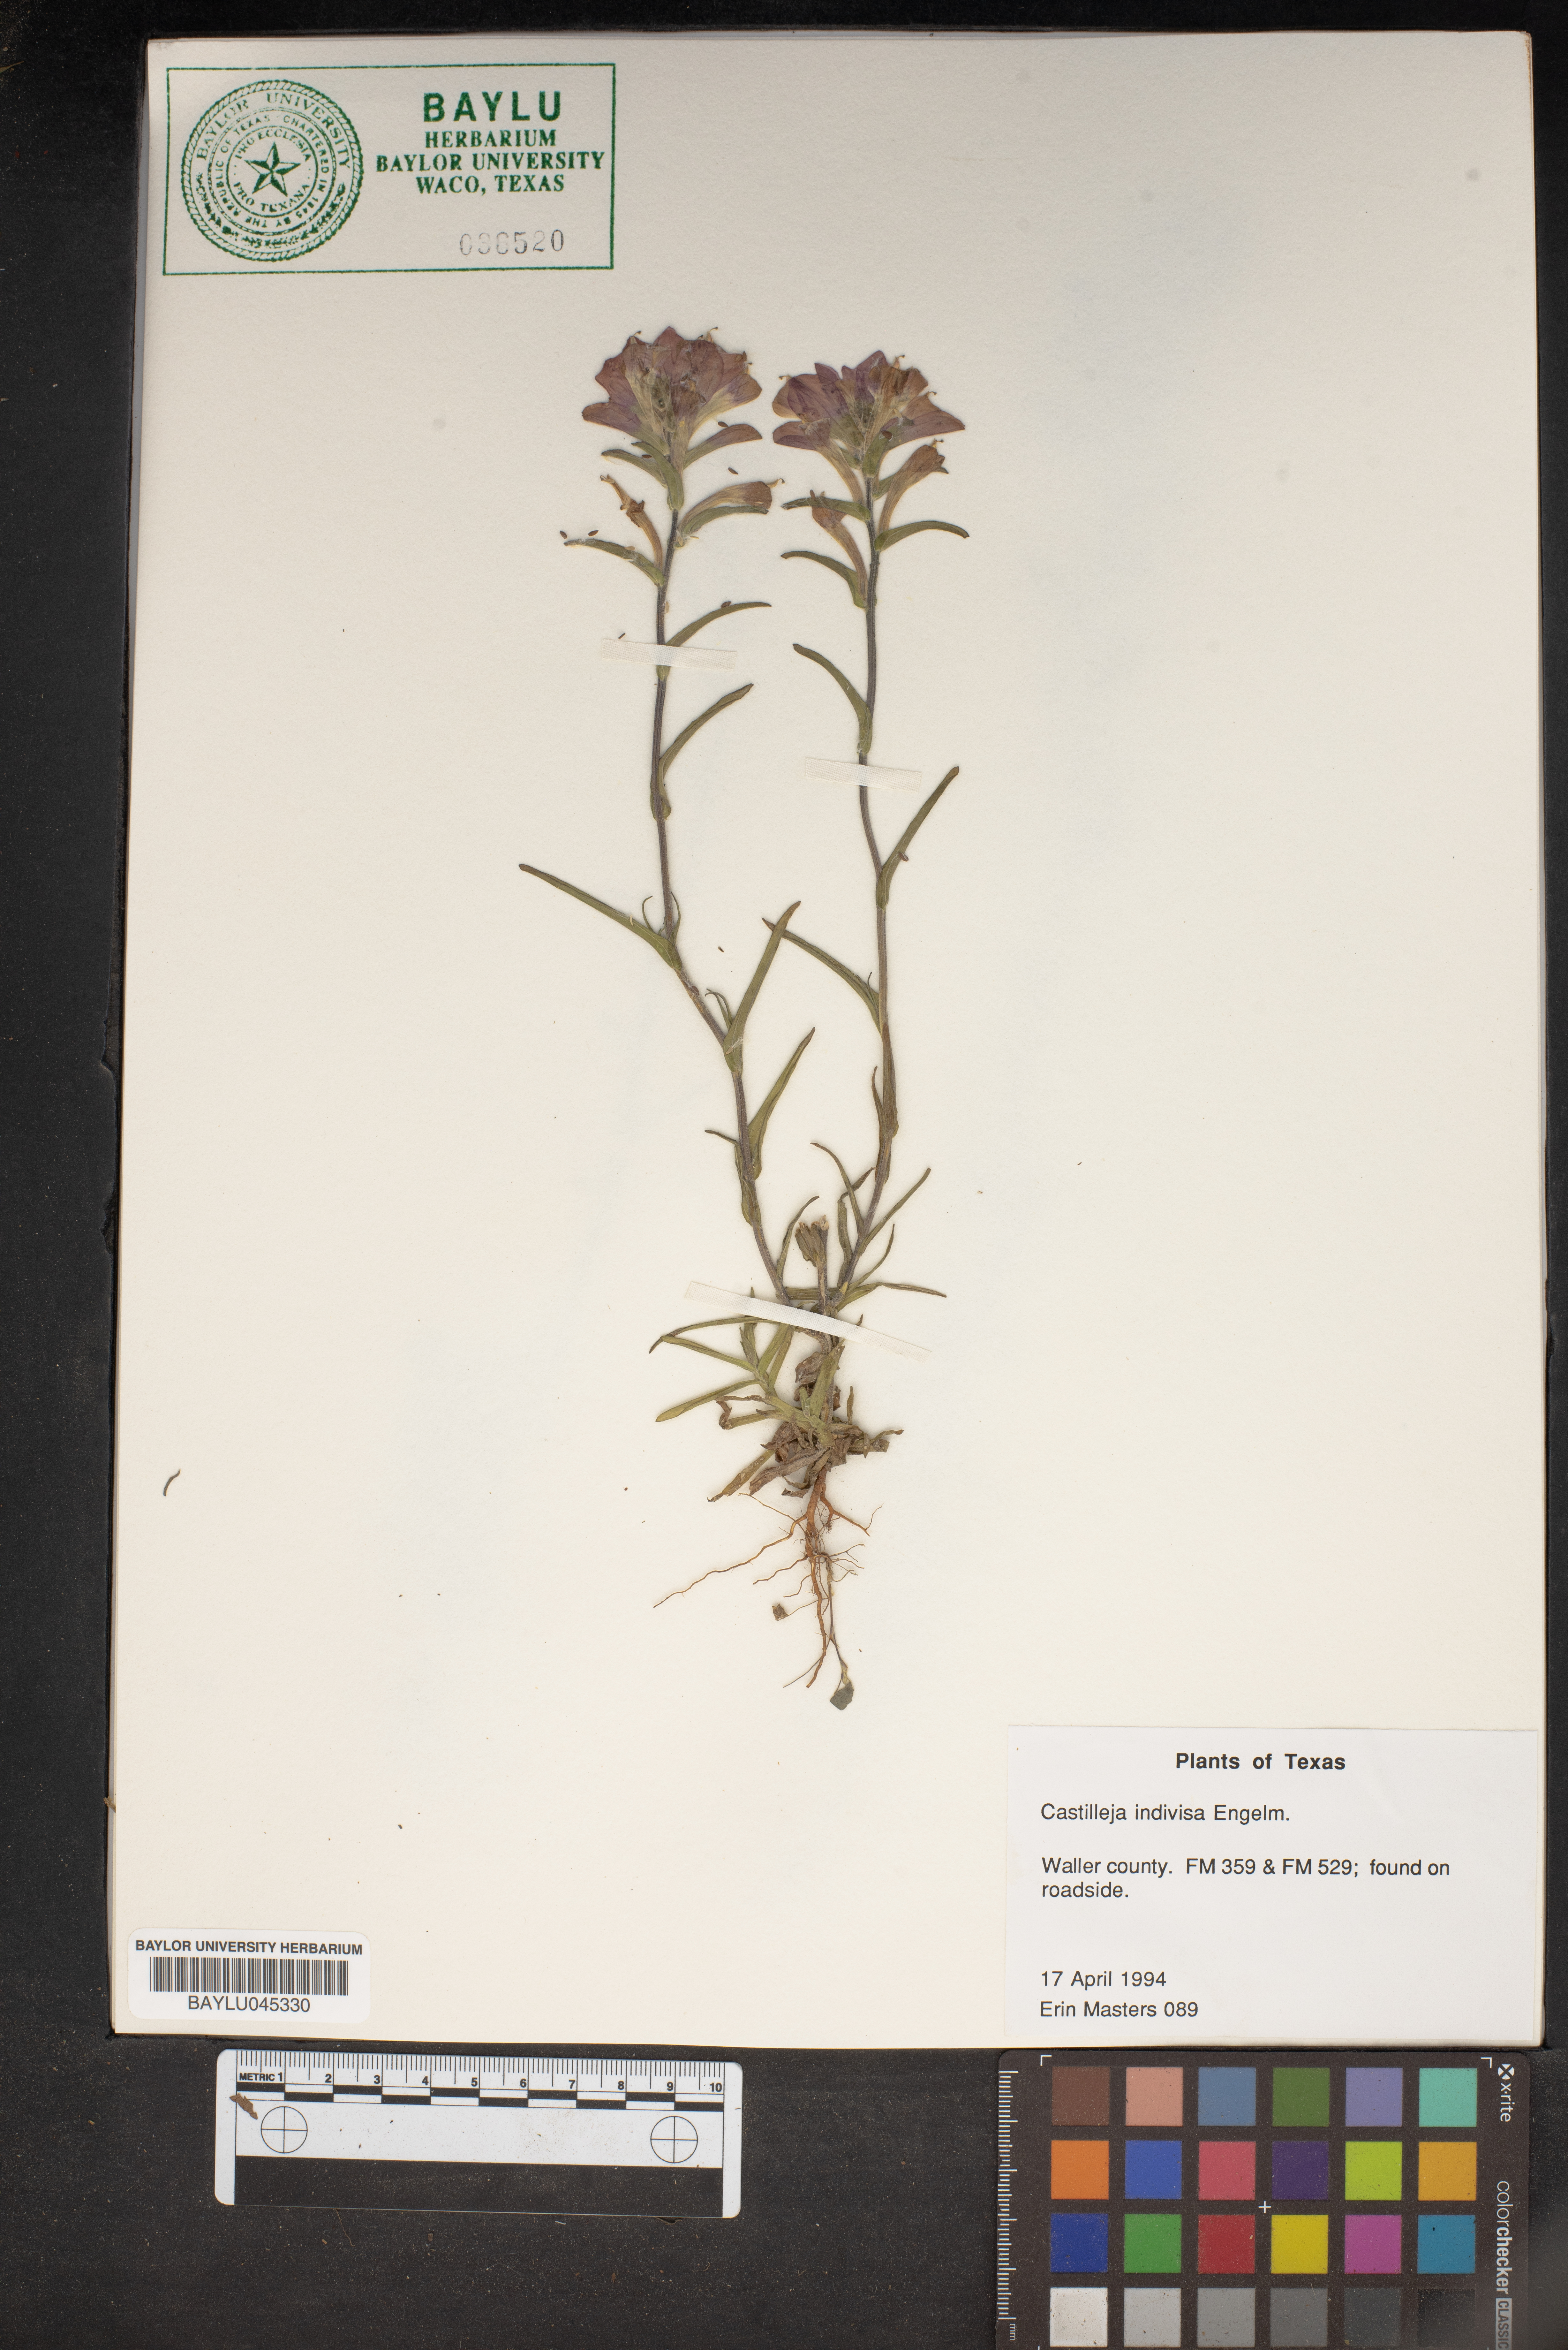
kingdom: Plantae
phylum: Tracheophyta
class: Magnoliopsida
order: Lamiales
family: Orobanchaceae
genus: Castilleja
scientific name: Castilleja indivisa
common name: Texas paintbrush
